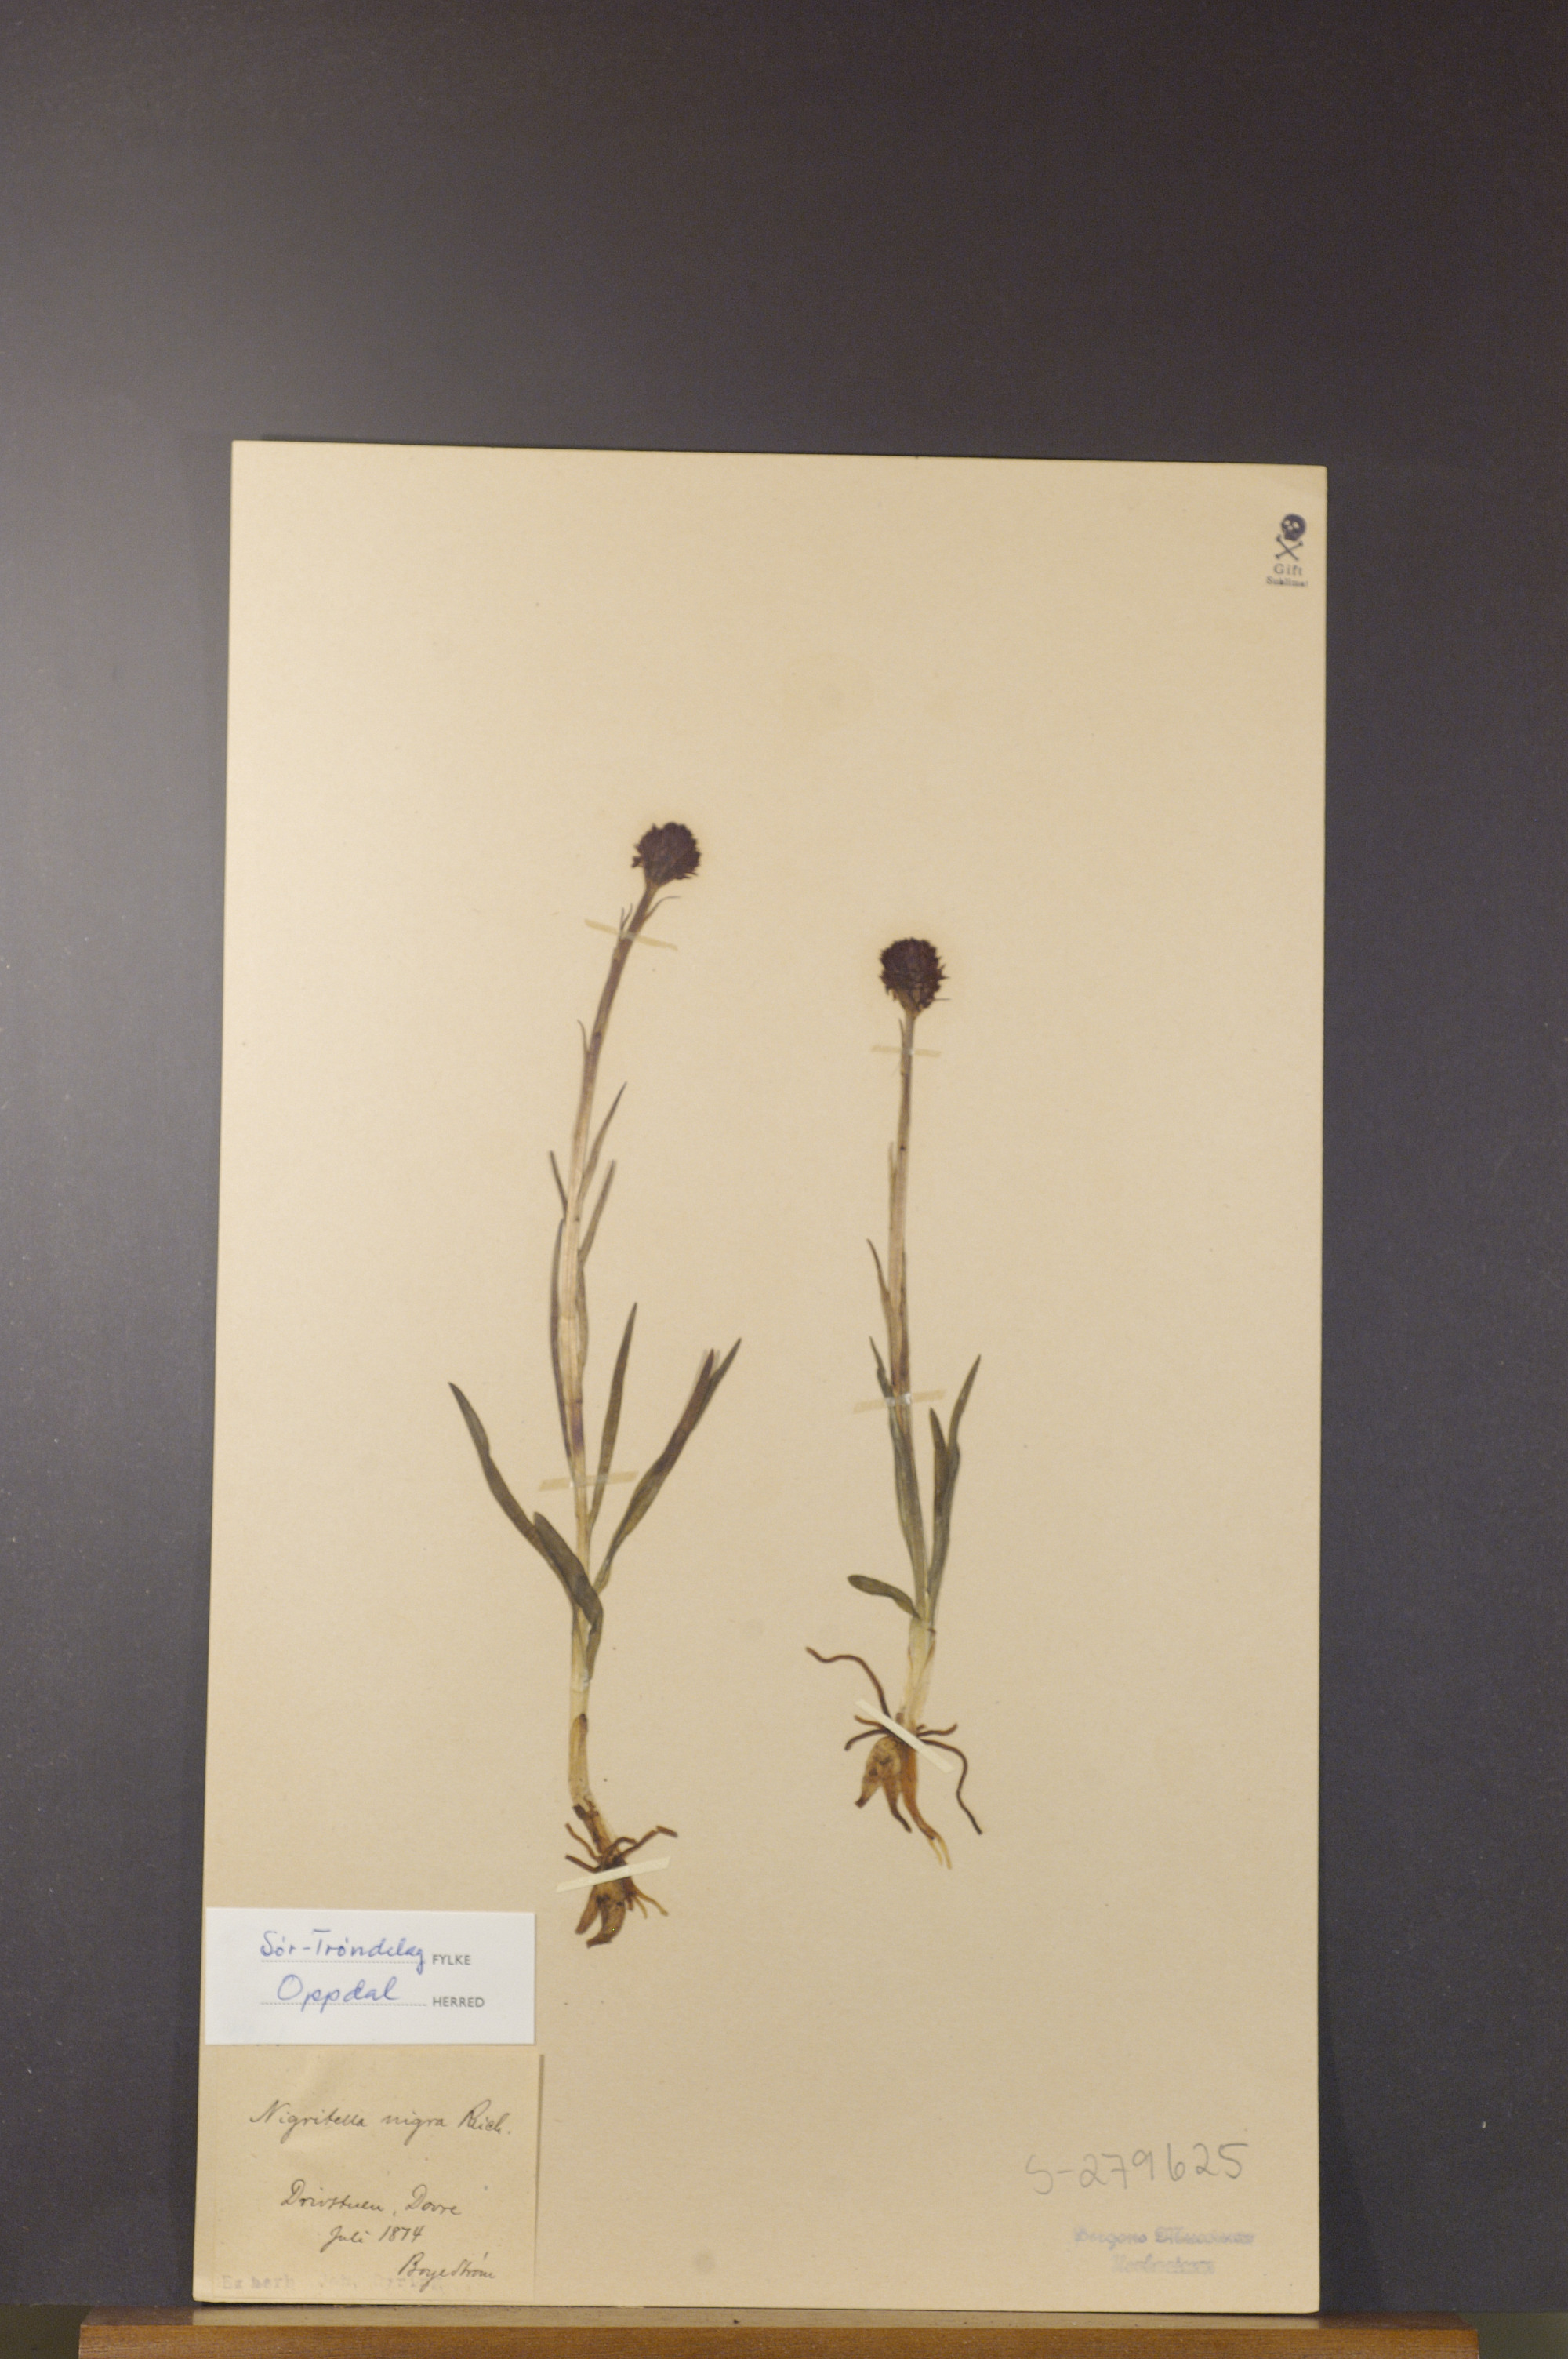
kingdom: Plantae
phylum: Tracheophyta
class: Liliopsida
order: Asparagales
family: Orchidaceae
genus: Gymnadenia
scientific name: Gymnadenia nigra
